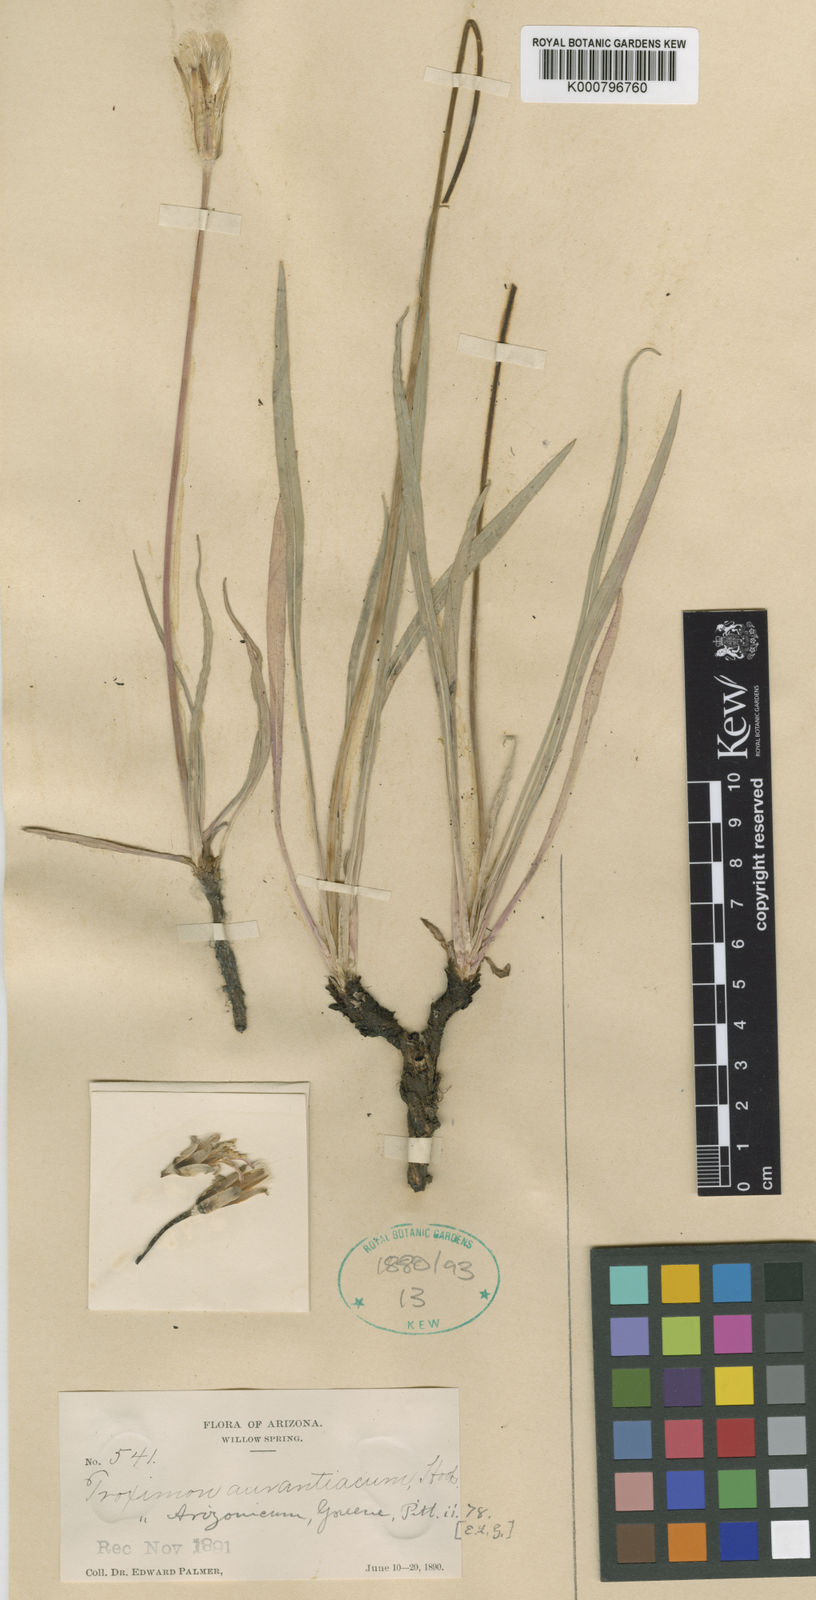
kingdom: Plantae
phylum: Tracheophyta
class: Magnoliopsida
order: Asterales
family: Asteraceae
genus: Agoseris
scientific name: Agoseris aurantiaca
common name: Mountain agoseris
